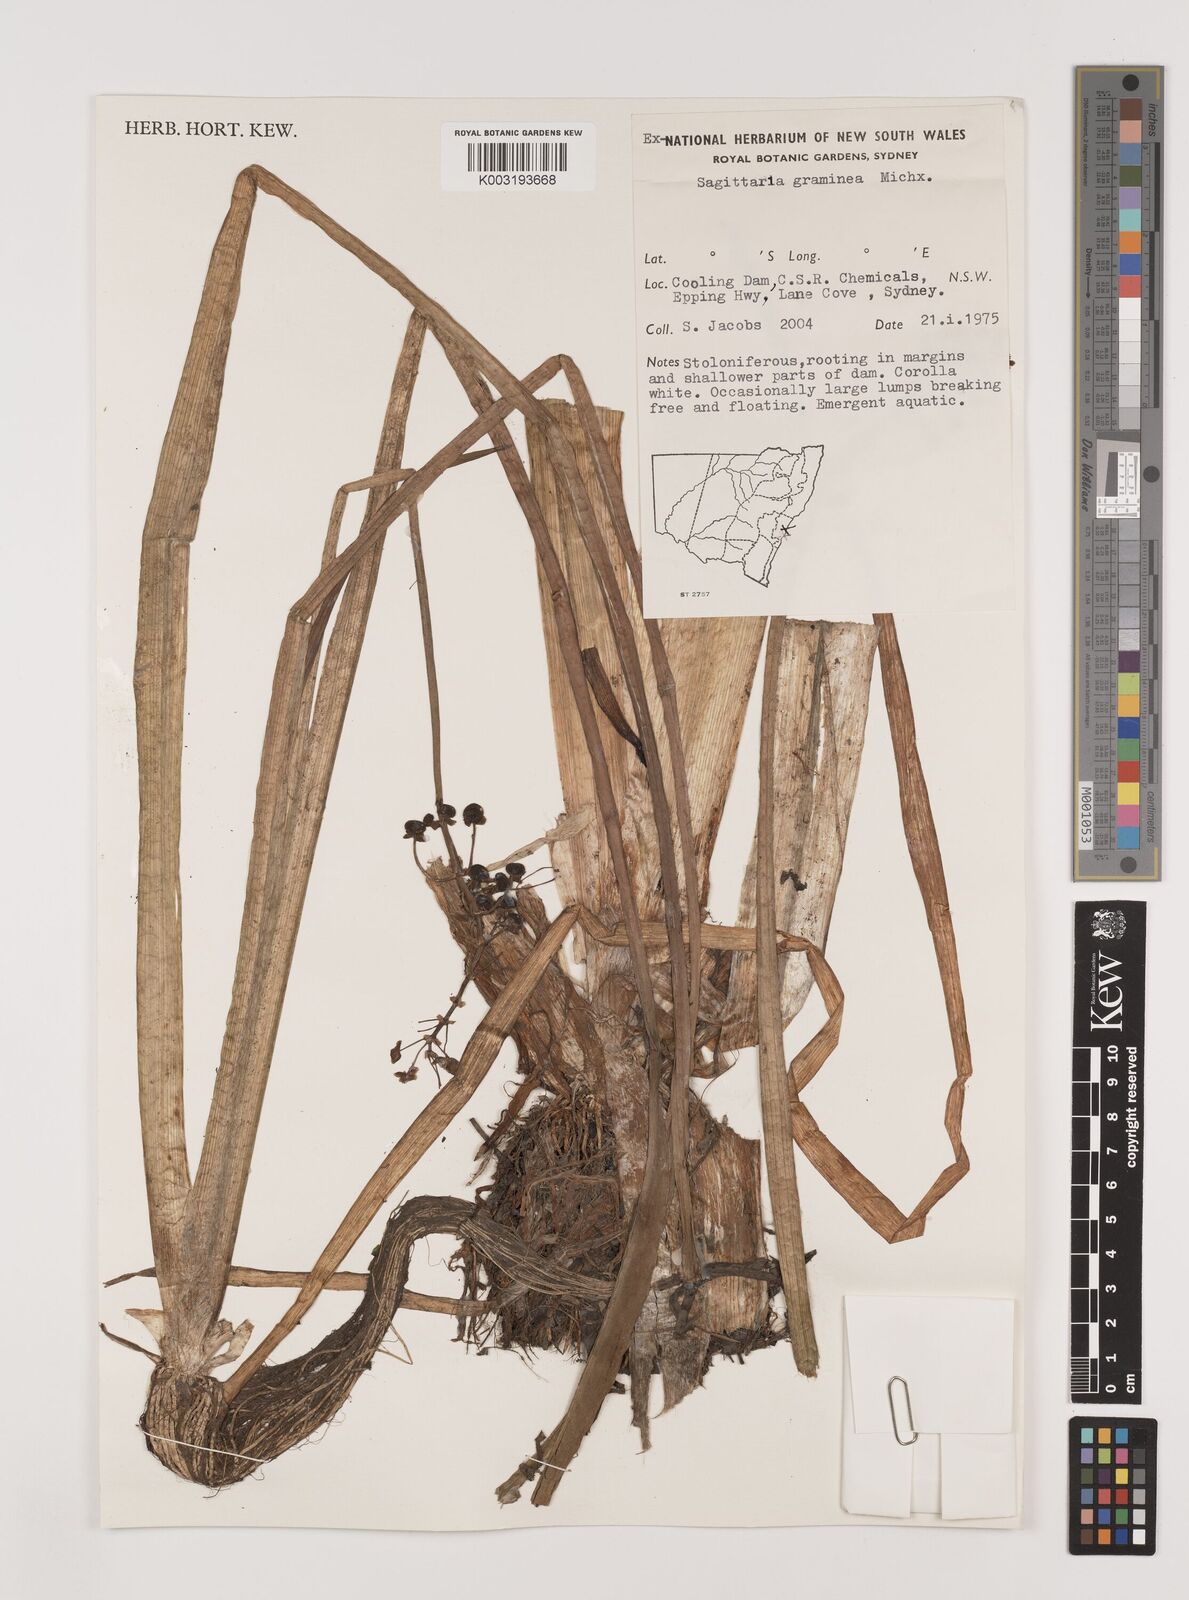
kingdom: Plantae
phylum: Tracheophyta
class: Liliopsida
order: Alismatales
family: Alismataceae
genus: Sagittaria
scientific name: Sagittaria graminea
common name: Grass-leaved arrowhead
